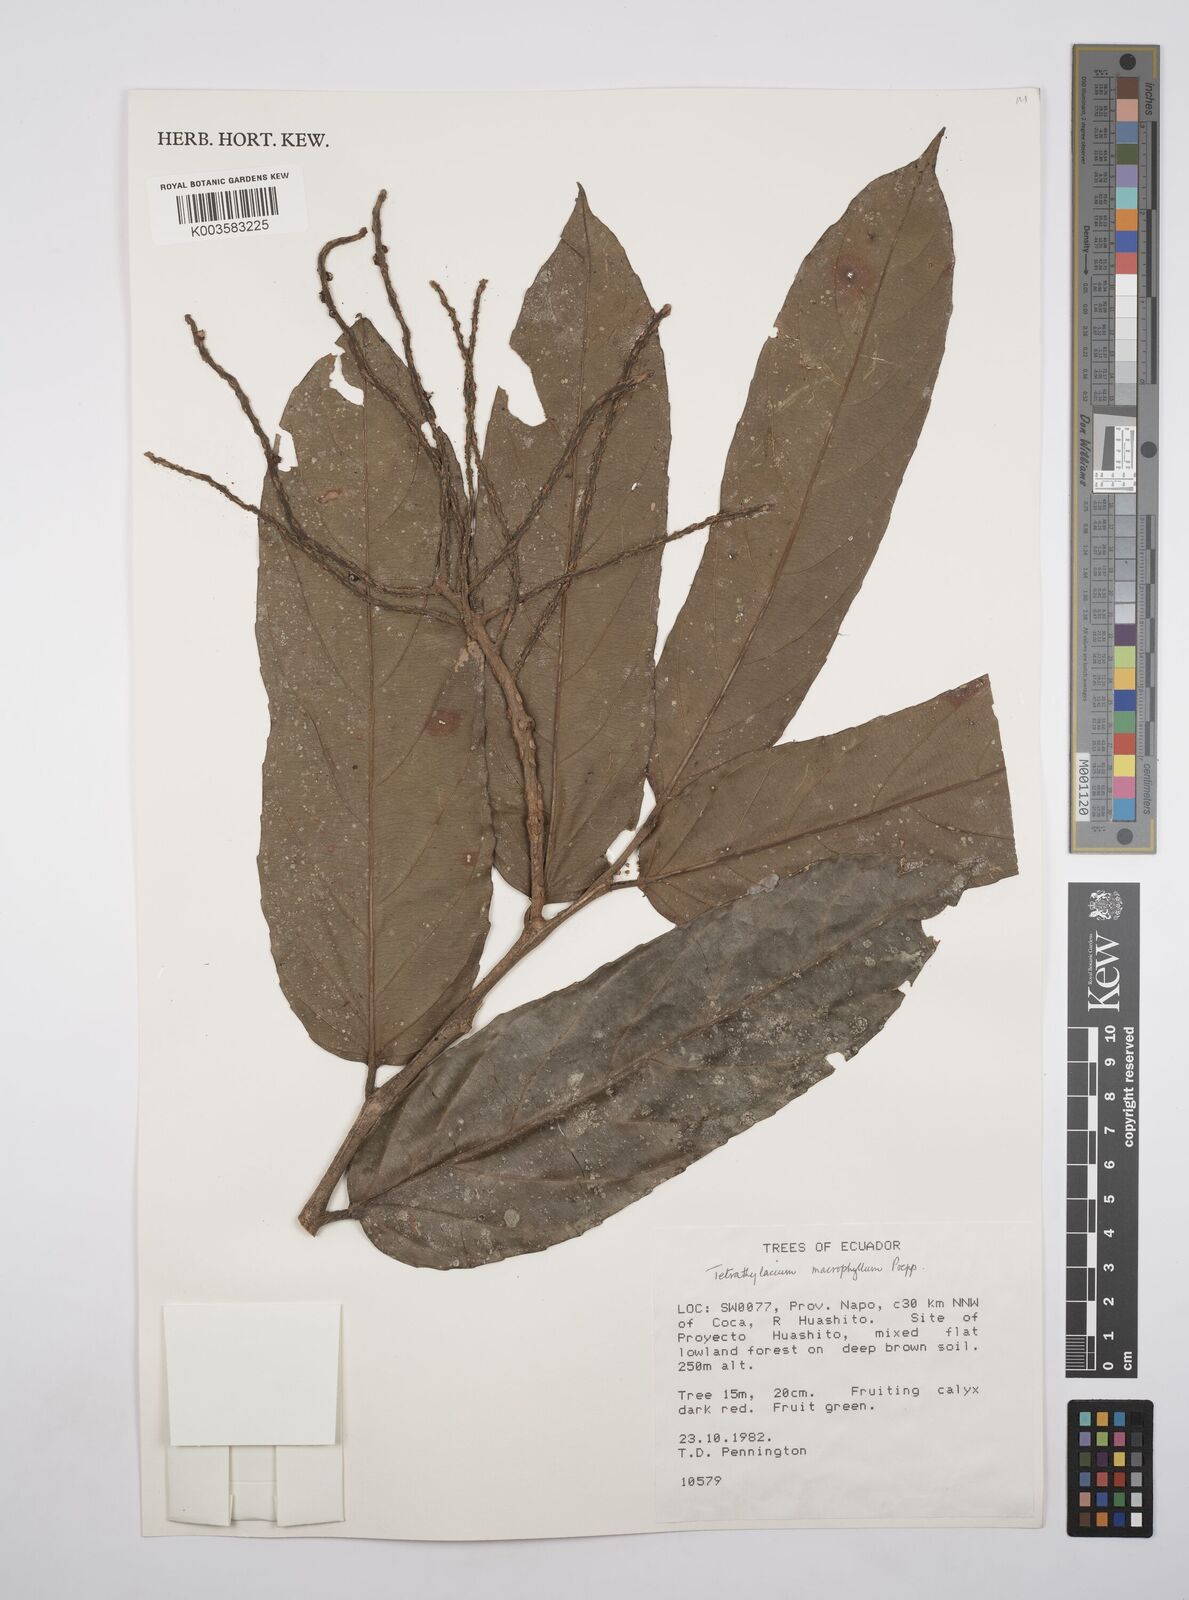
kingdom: Plantae
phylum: Tracheophyta
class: Magnoliopsida
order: Malpighiales
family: Salicaceae
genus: Tetrathylacium
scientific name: Tetrathylacium macrophyllum
